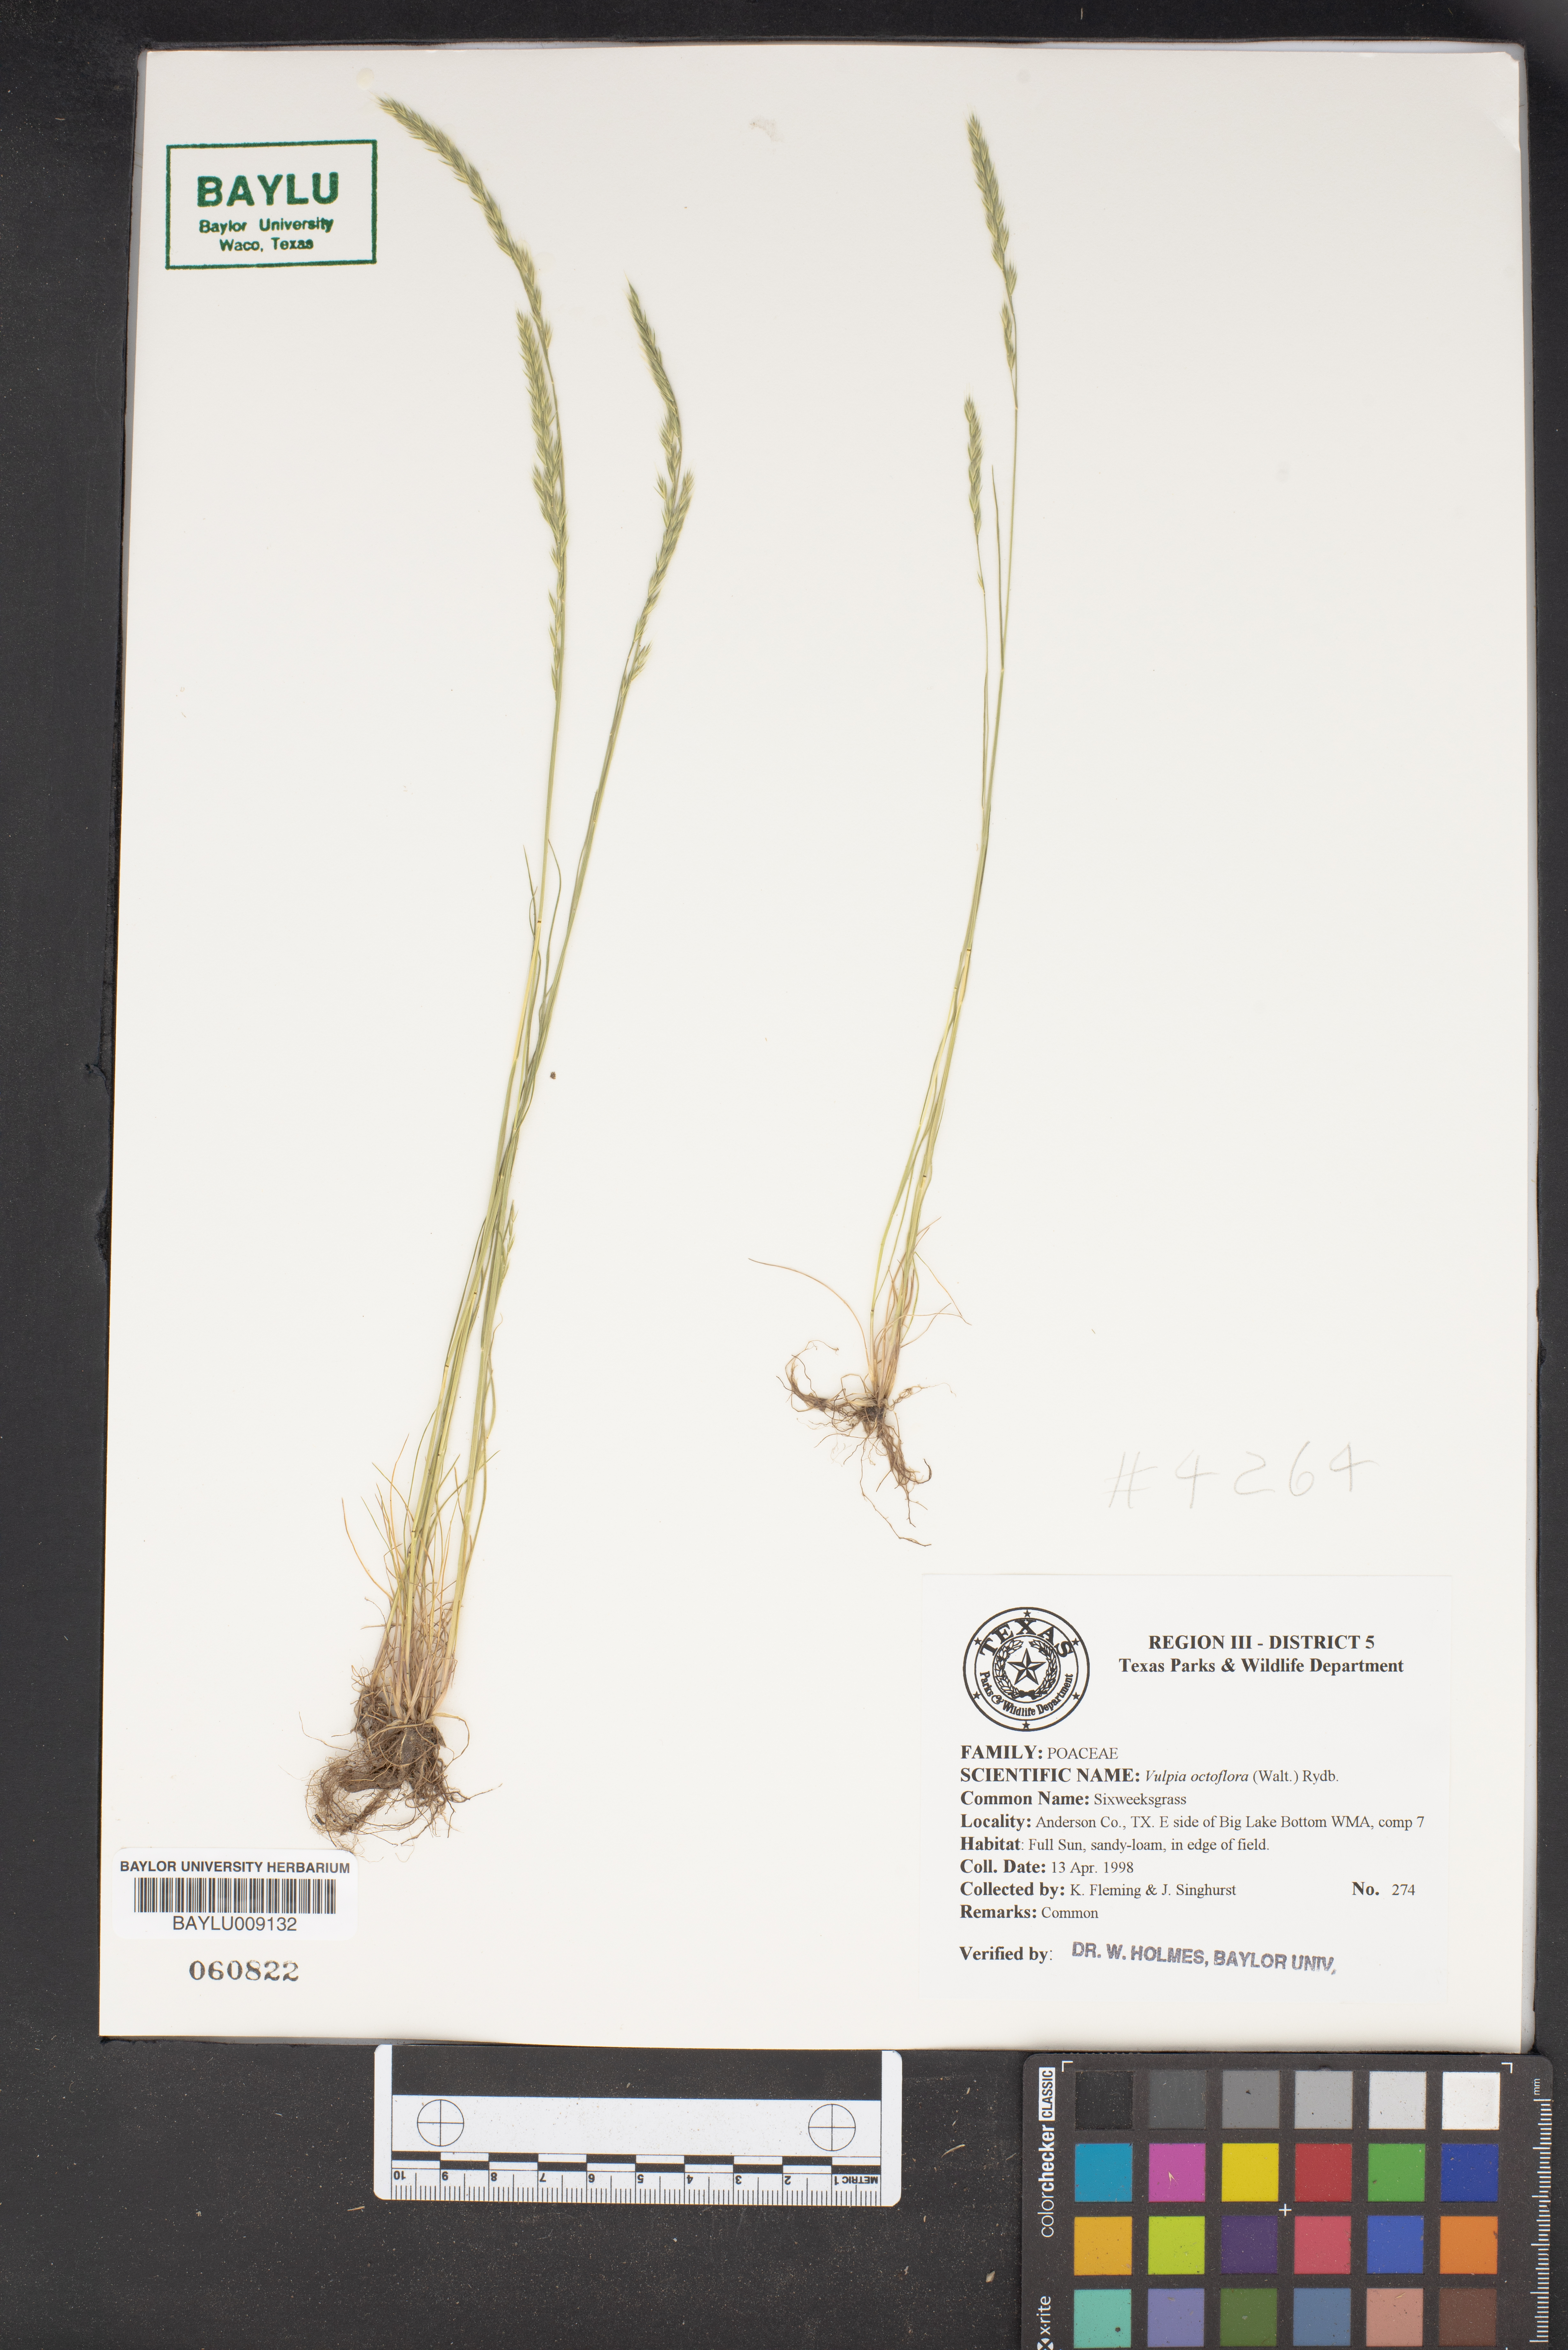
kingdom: Plantae
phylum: Tracheophyta
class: Liliopsida
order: Poales
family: Poaceae
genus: Festuca
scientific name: Festuca octoflora
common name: Sixweeks grass
